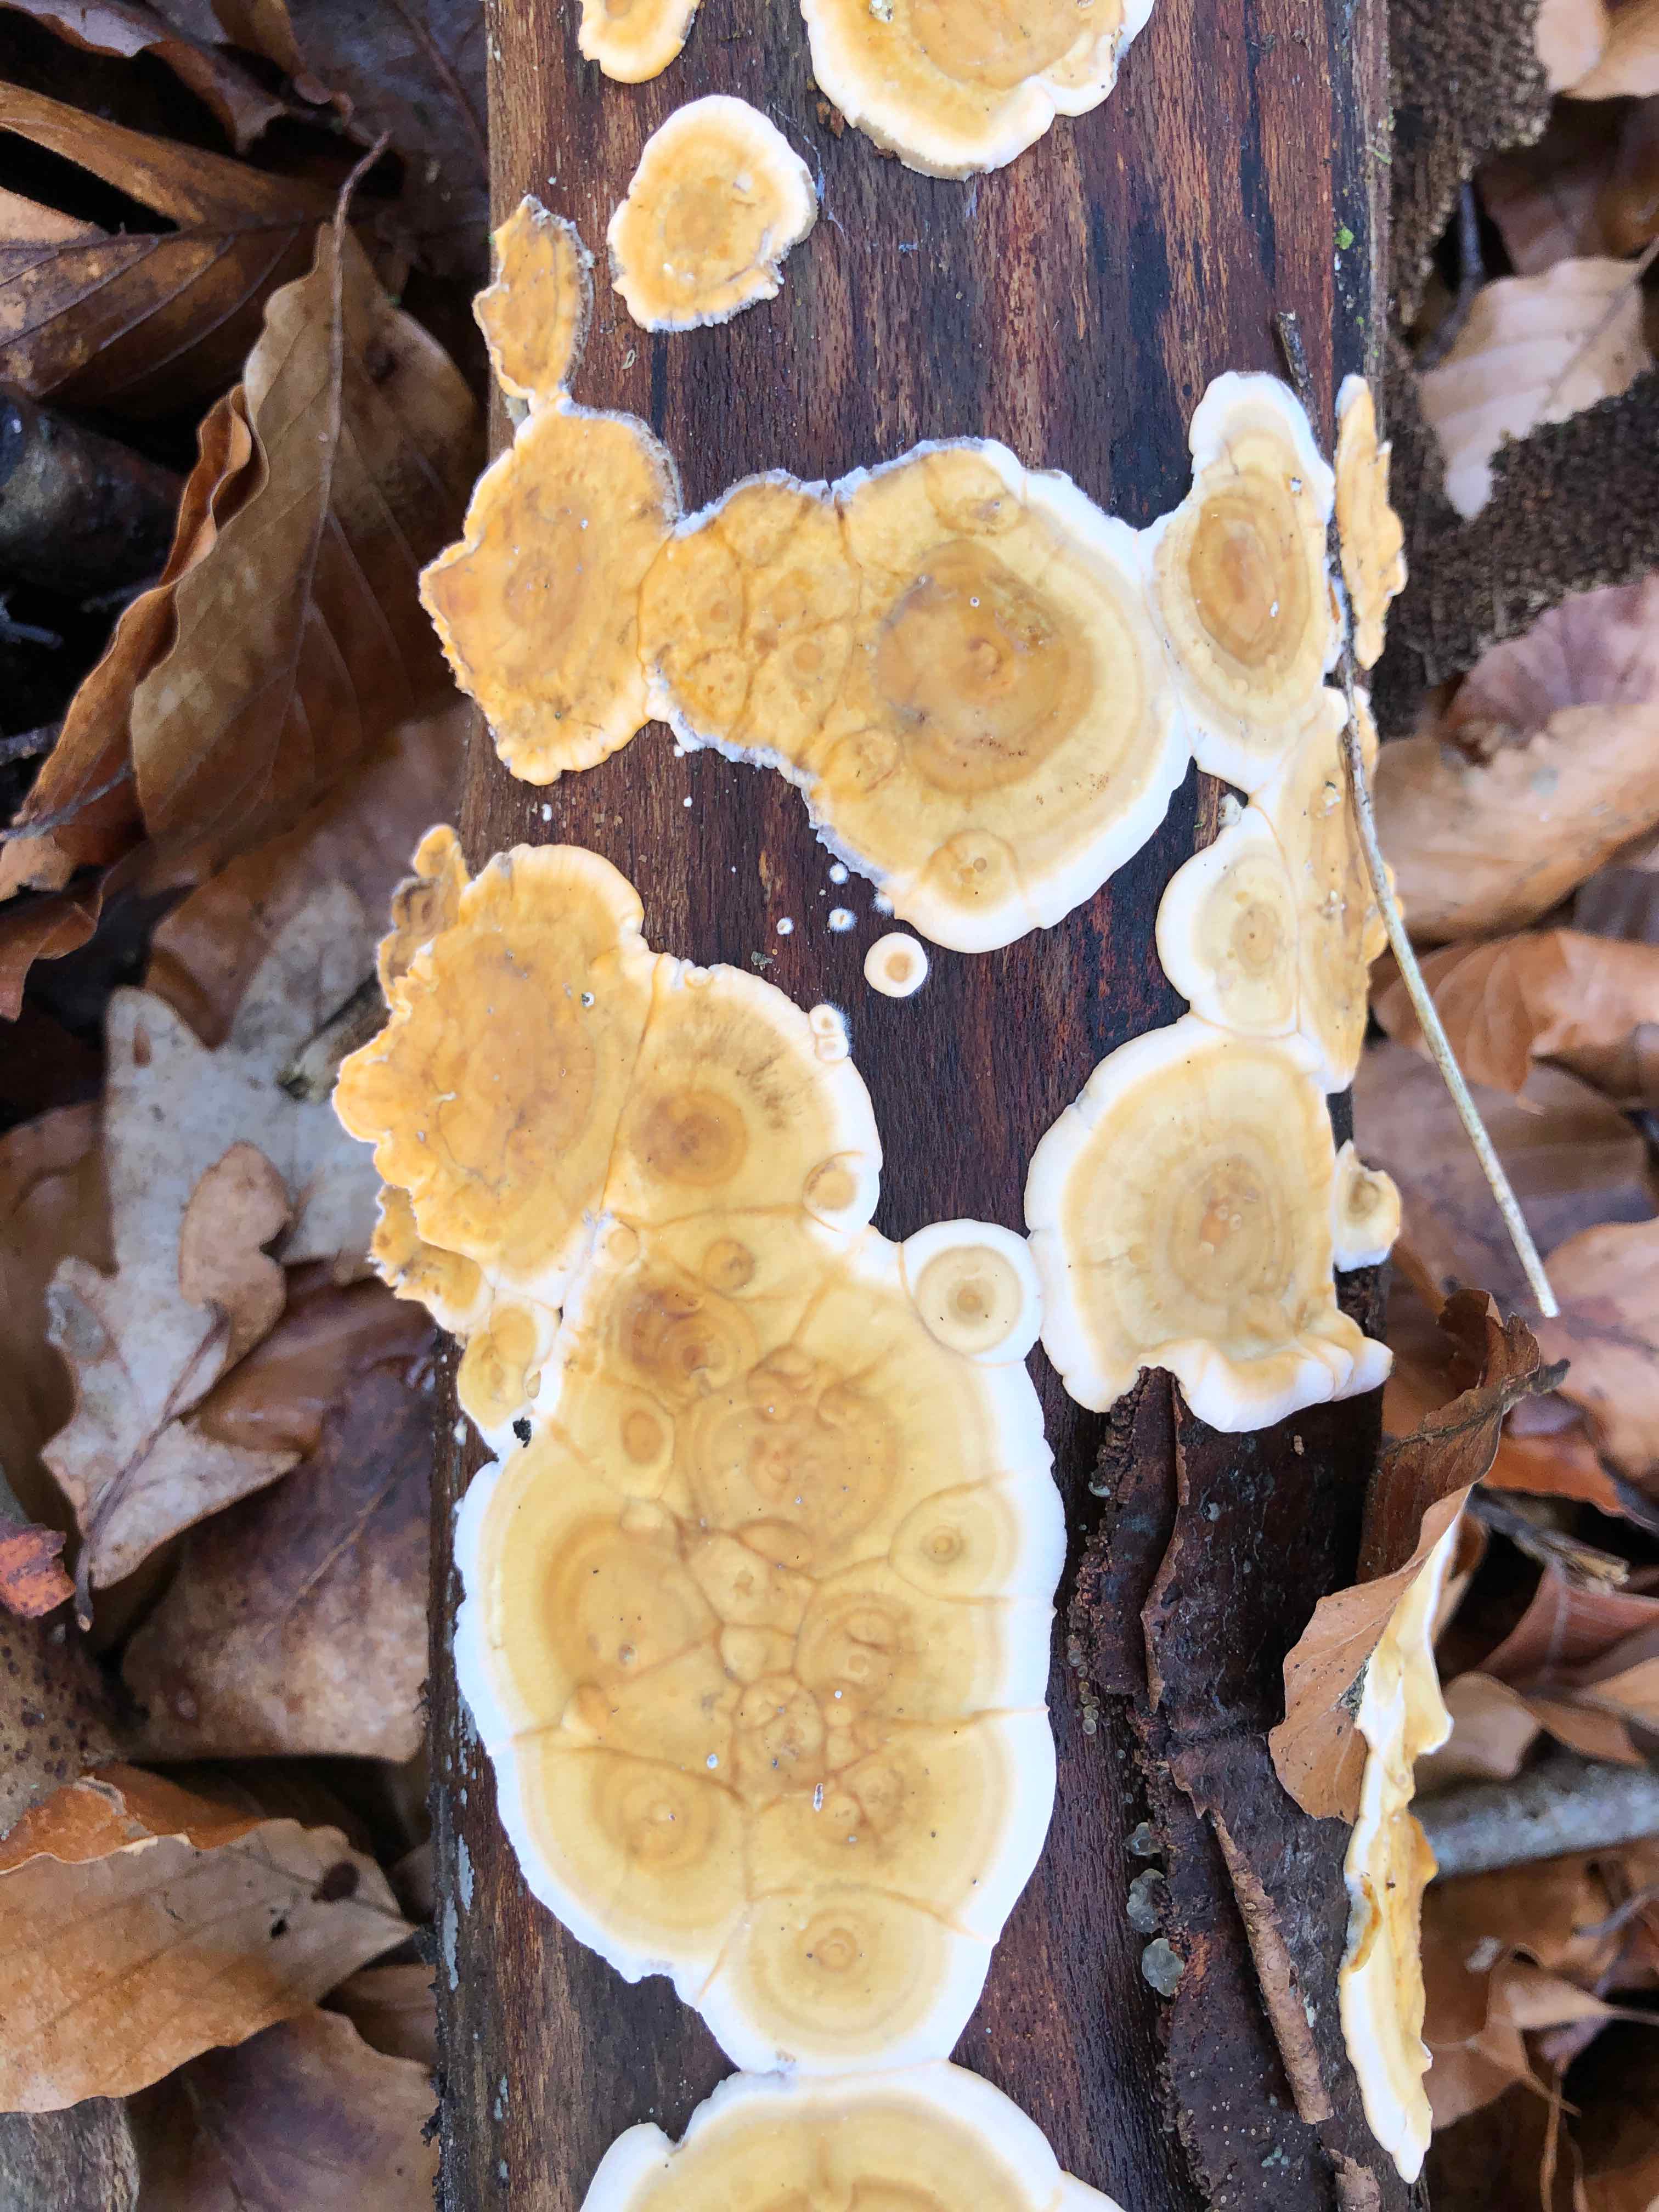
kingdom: Fungi
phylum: Basidiomycota
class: Agaricomycetes
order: Russulales
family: Stereaceae
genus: Stereum
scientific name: Stereum hirsutum
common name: håret lædersvamp
